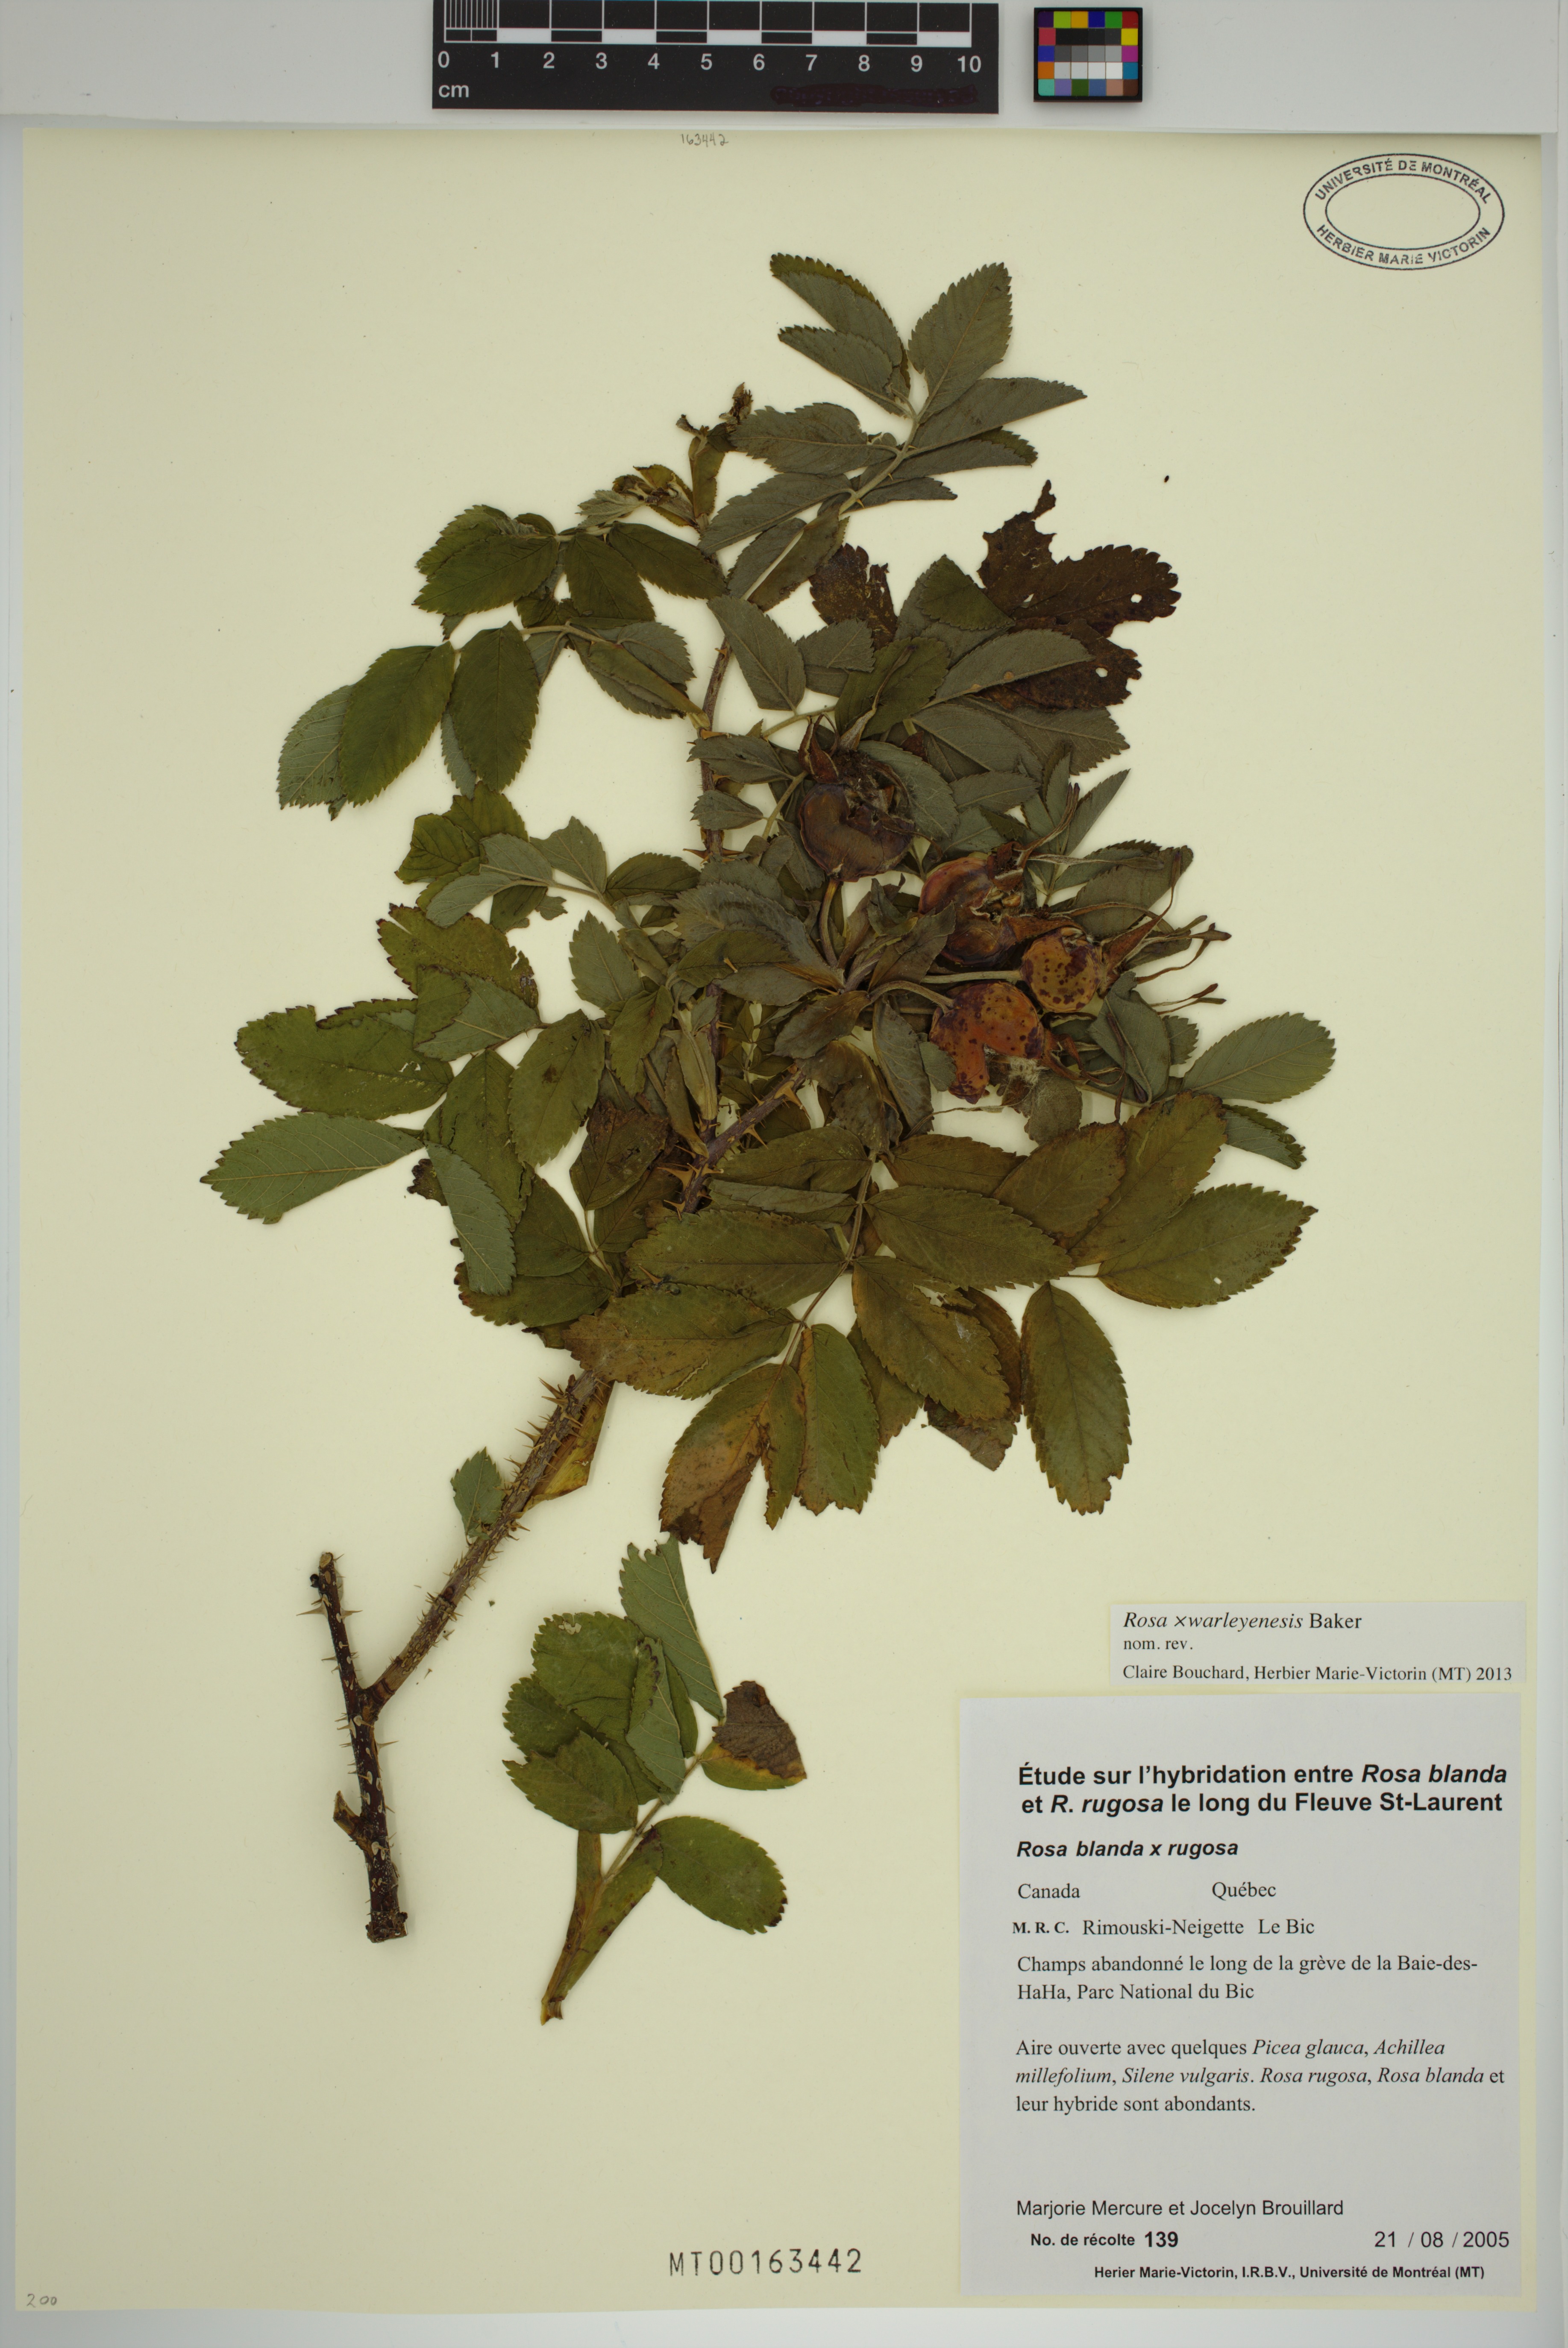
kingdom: Plantae
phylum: Tracheophyta
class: Magnoliopsida
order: Rosales
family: Rosaceae
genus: Rosa
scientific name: Rosa warleyensis
